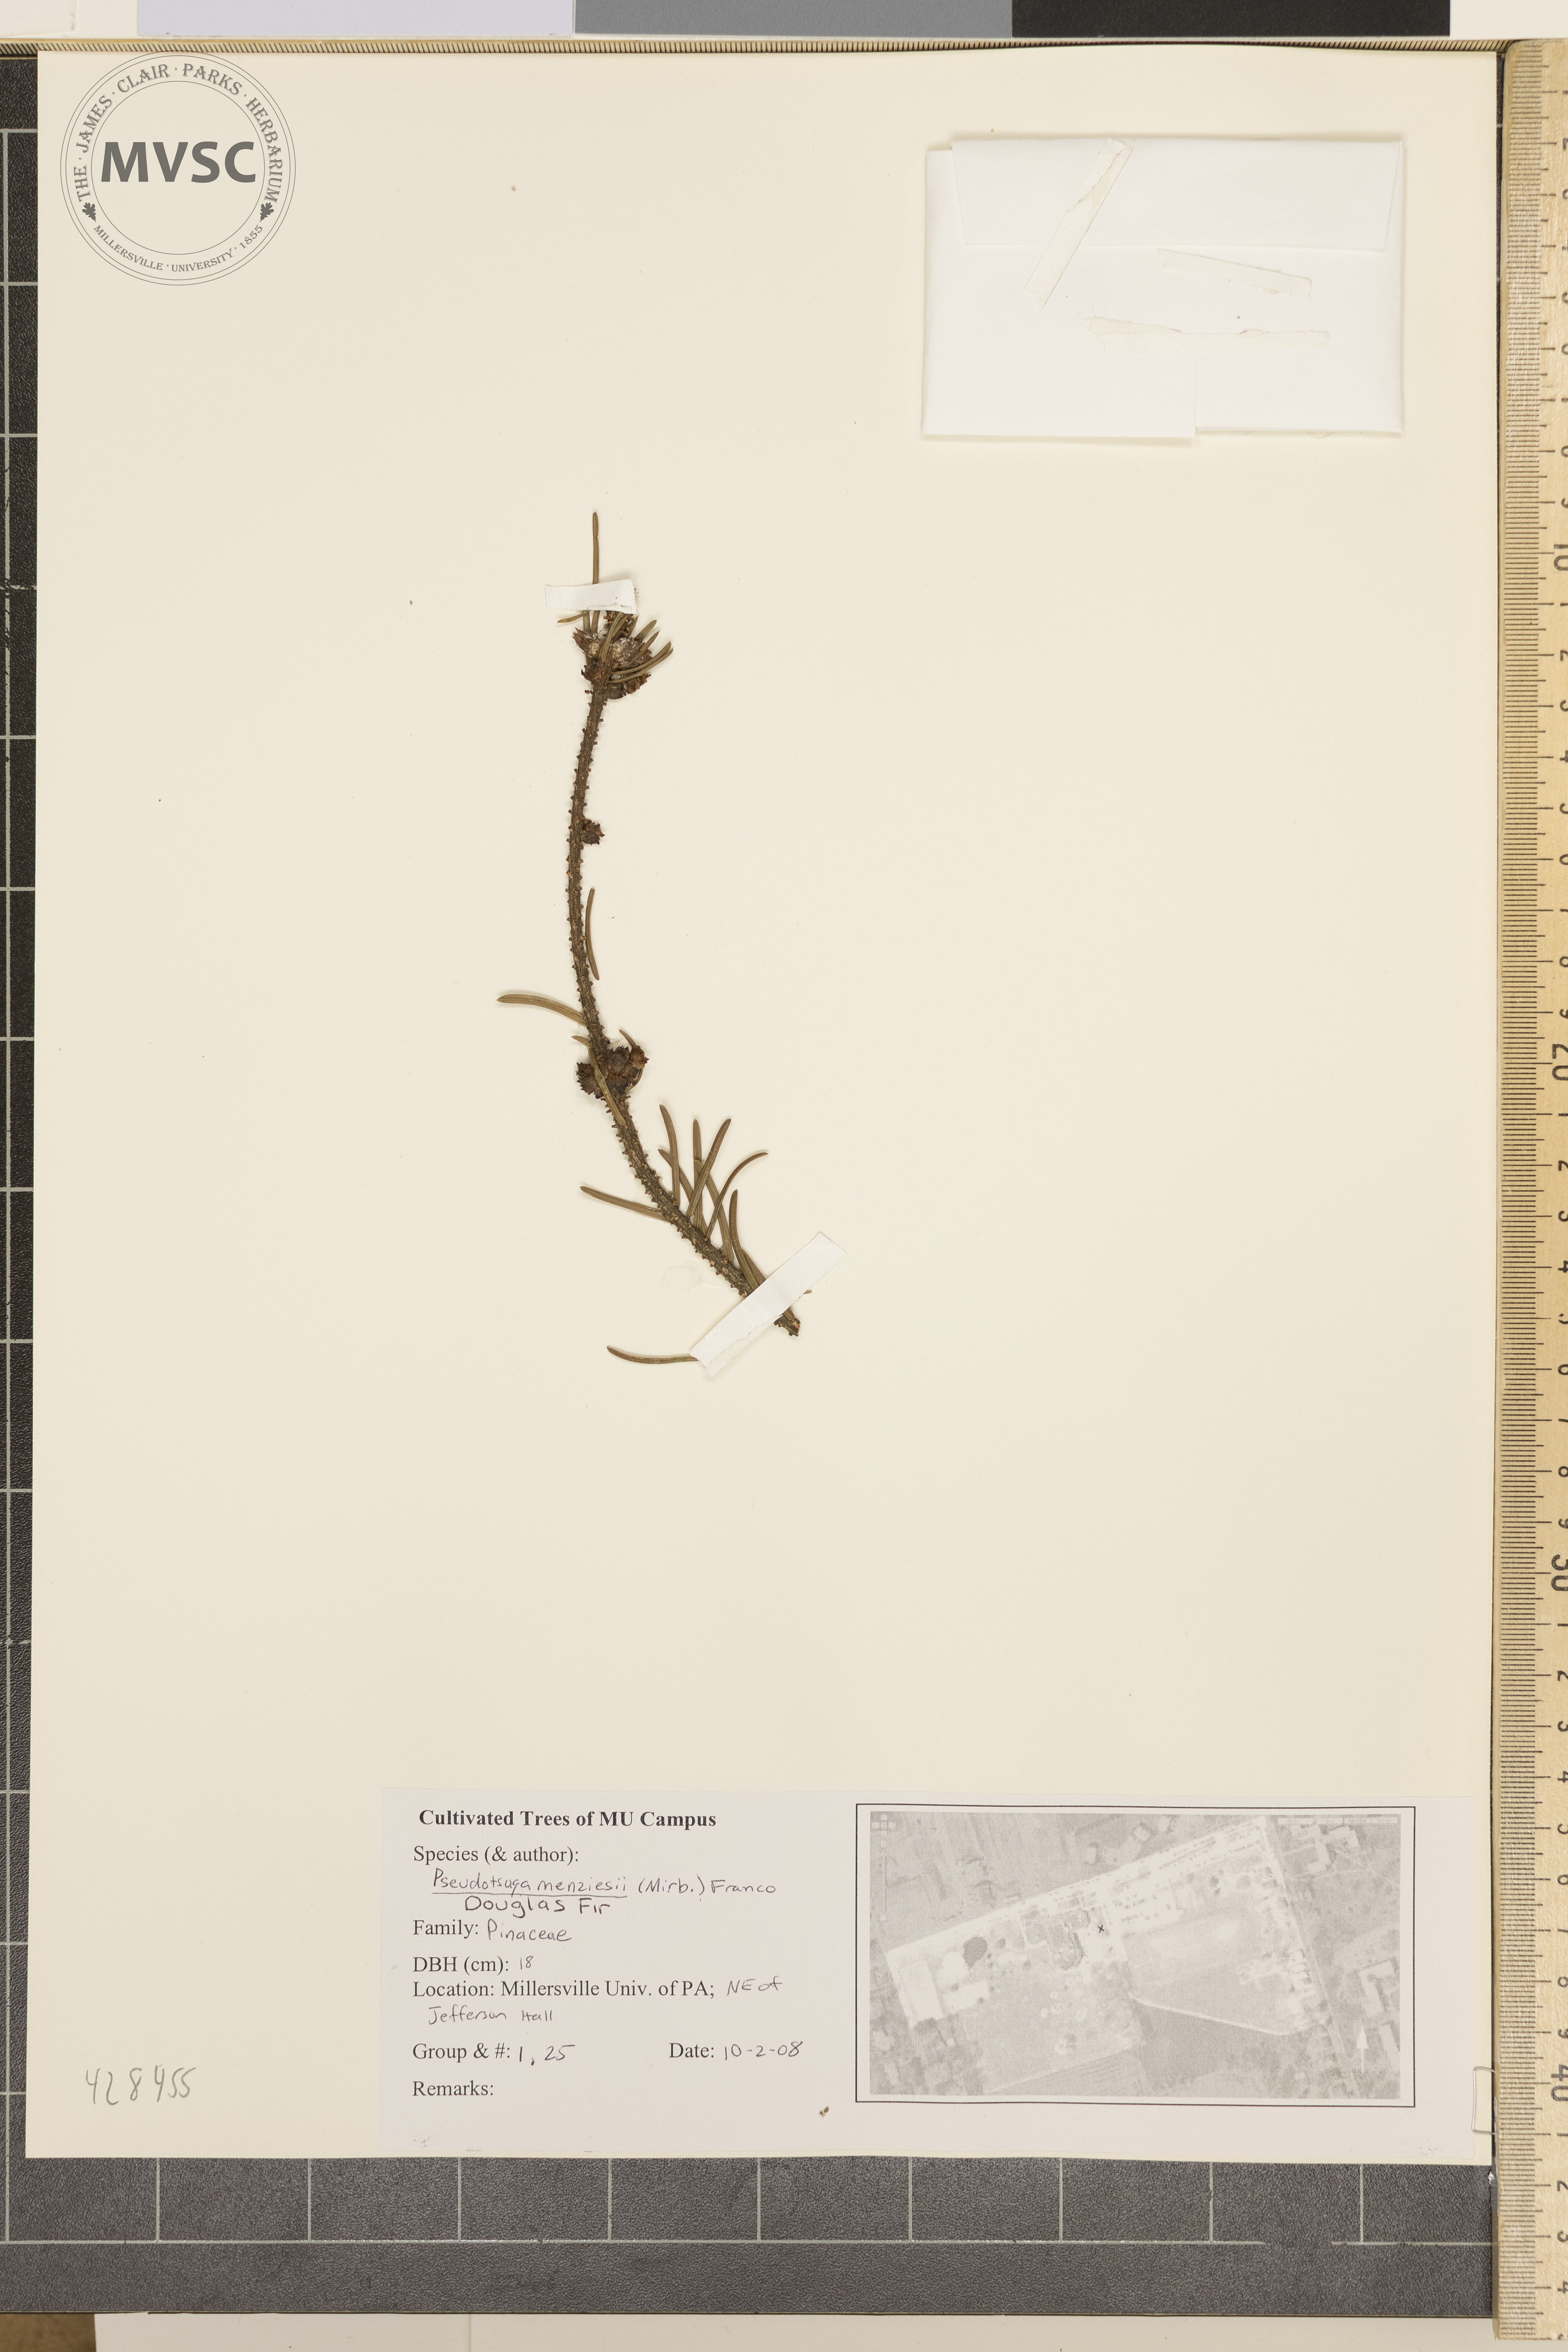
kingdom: Plantae
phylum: Tracheophyta
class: Pinopsida
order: Pinales
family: Pinaceae
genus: Picea
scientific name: Picea abies
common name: Norway spruce
